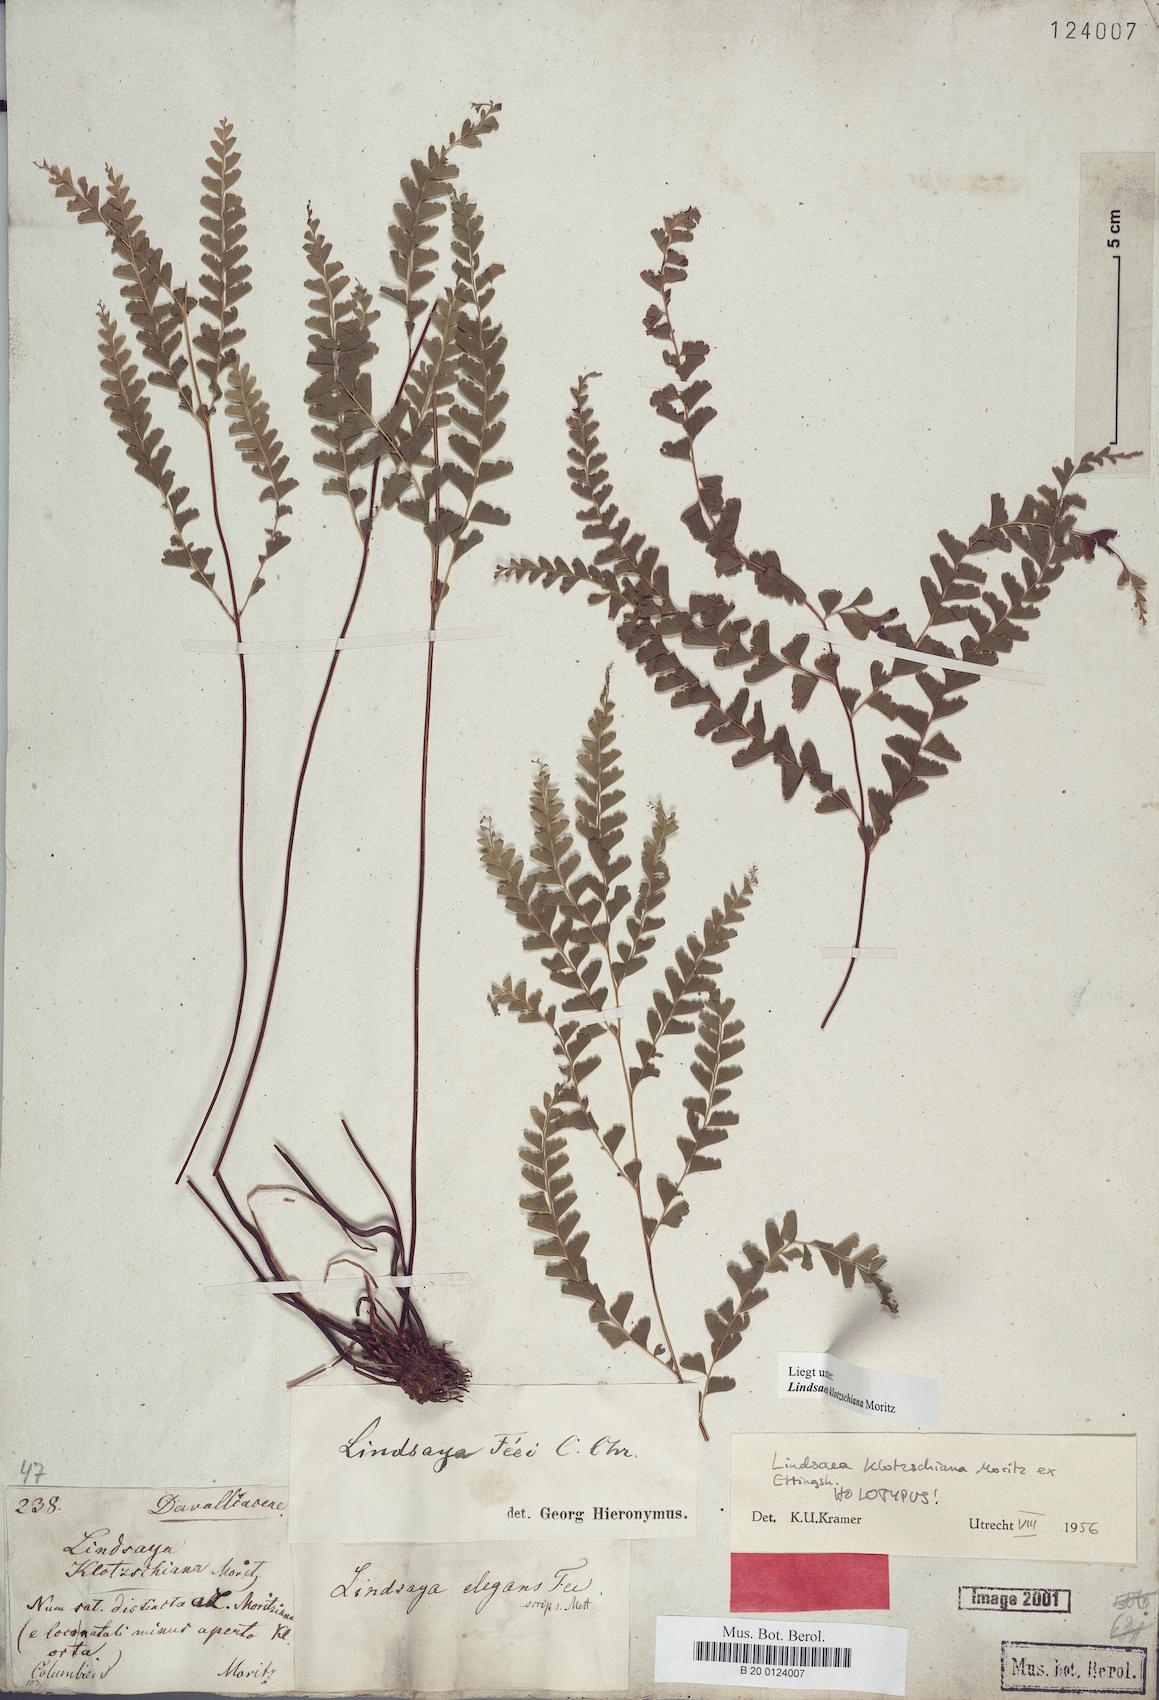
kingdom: Plantae
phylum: Tracheophyta
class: Polypodiopsida
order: Polypodiales
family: Lindsaeaceae
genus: Lindsaea
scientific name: Lindsaea feei
